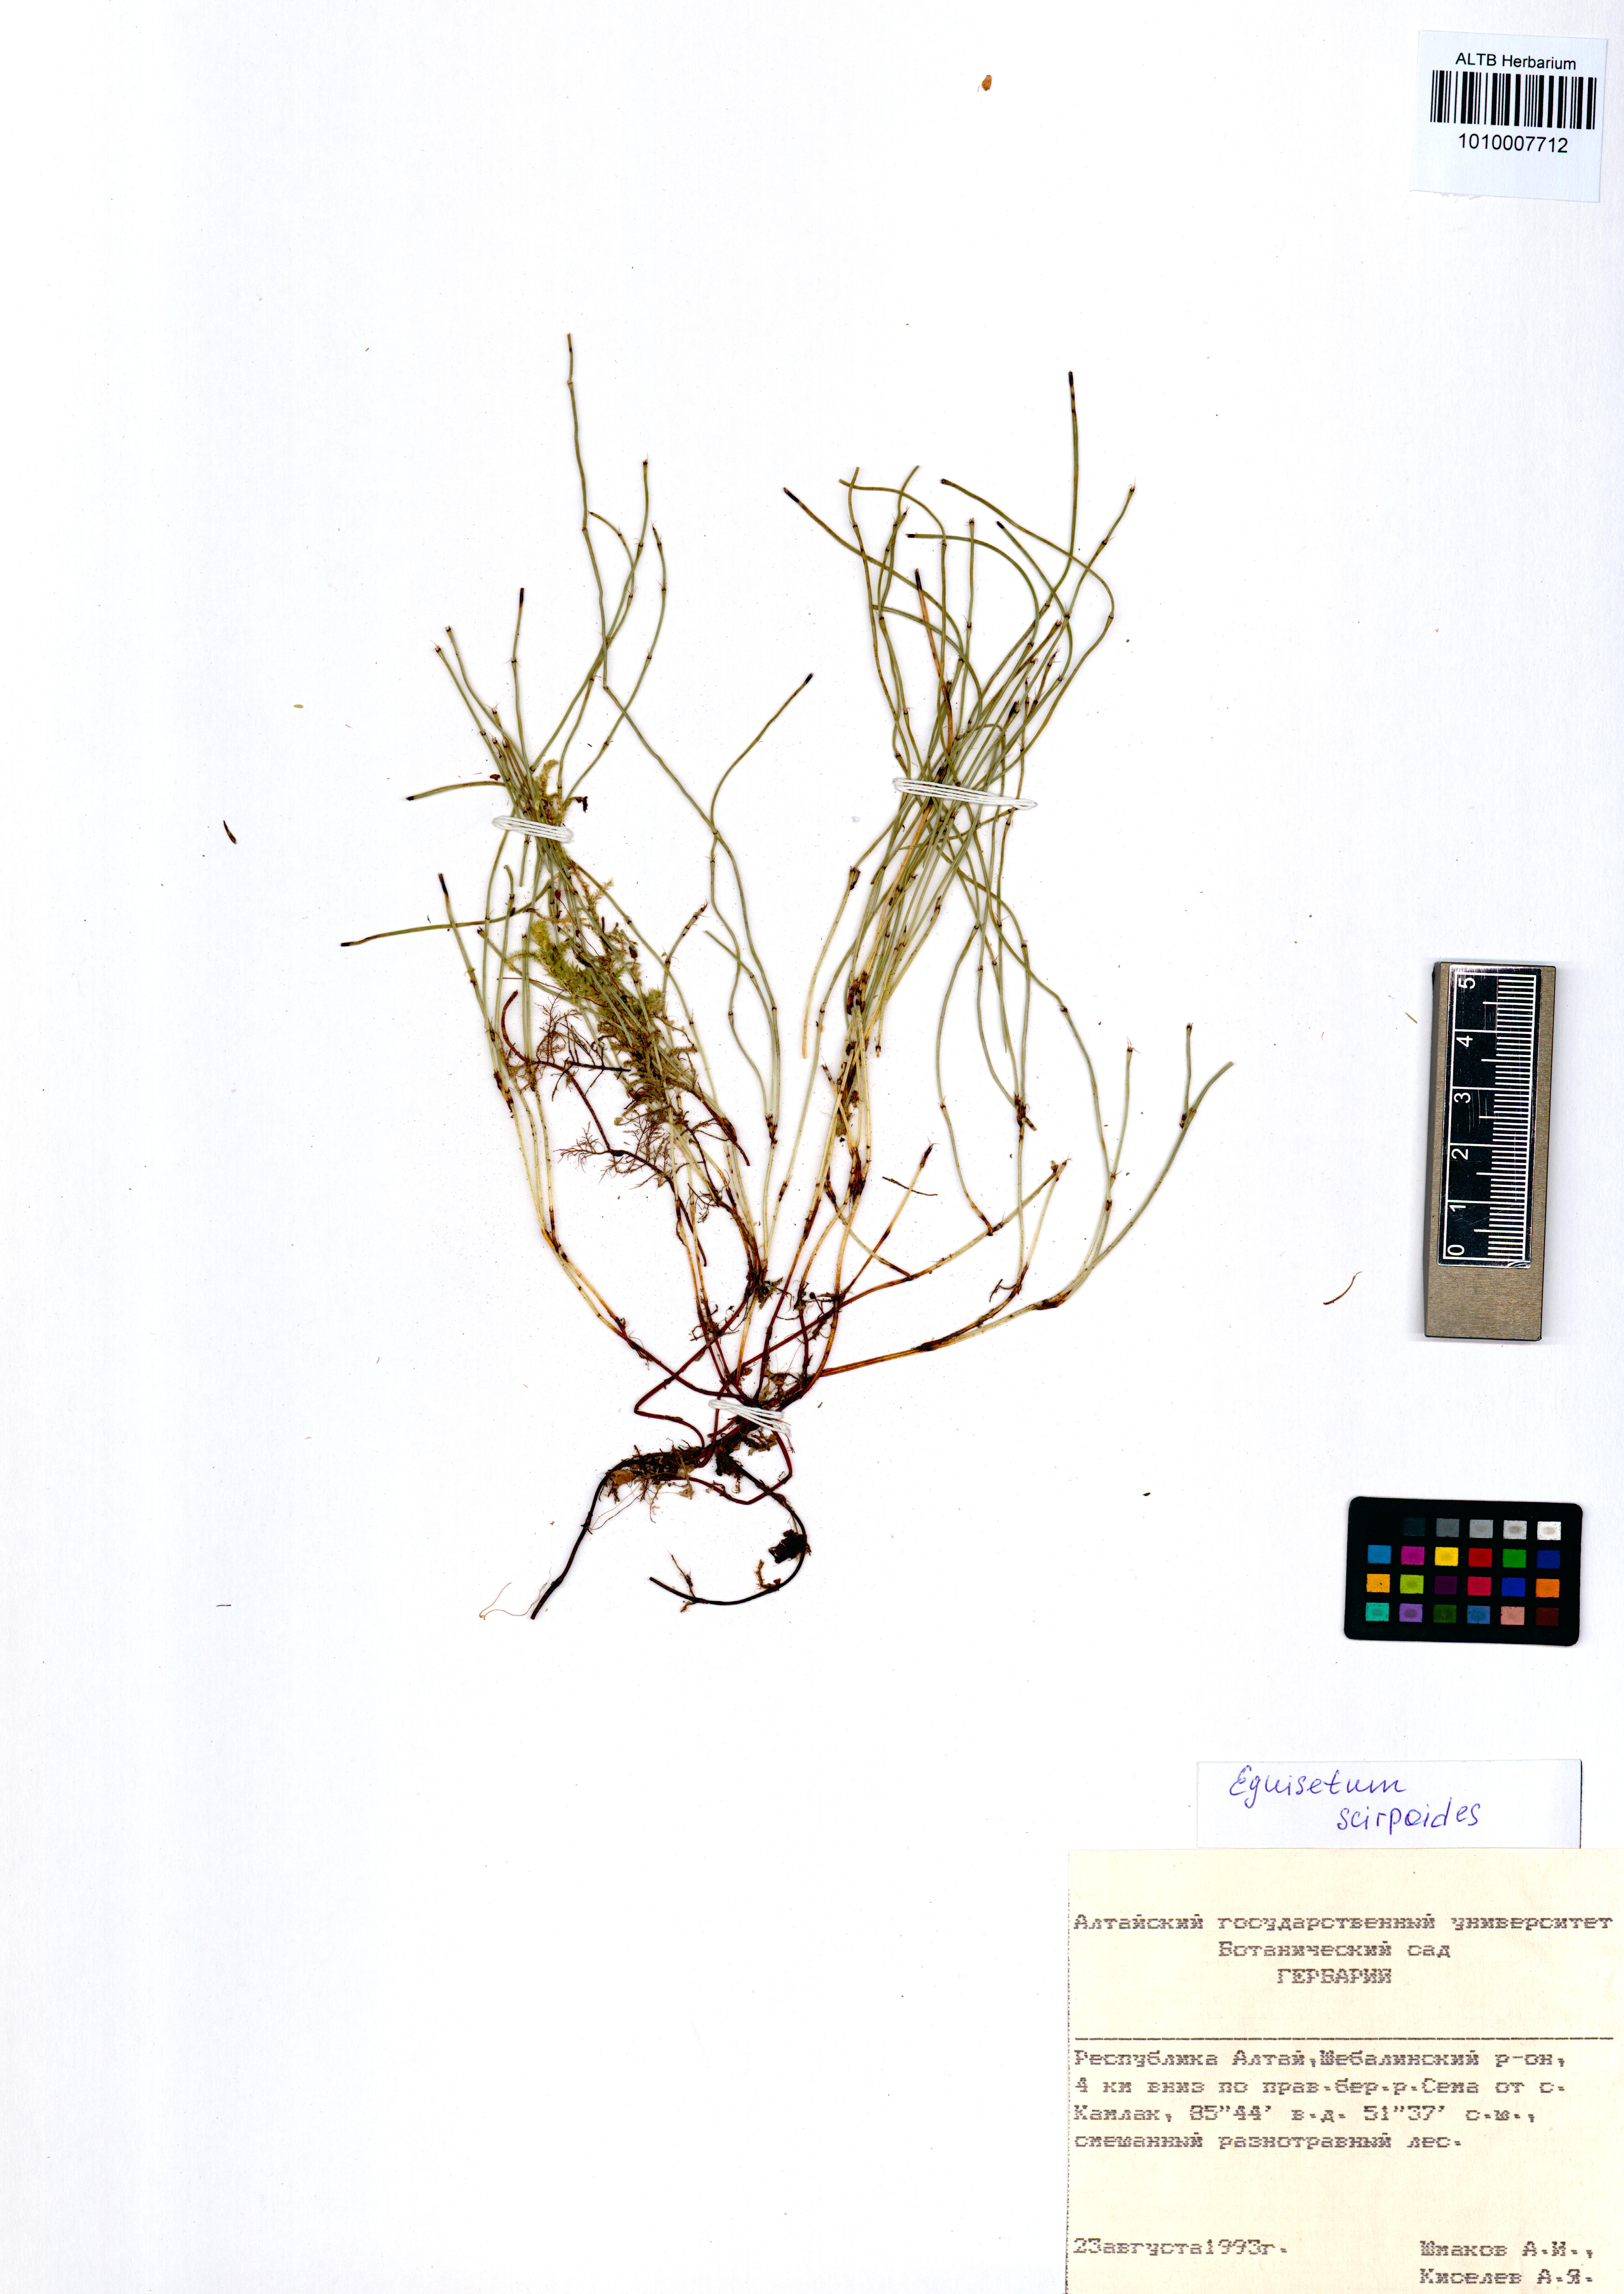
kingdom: Plantae
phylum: Tracheophyta
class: Polypodiopsida
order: Equisetales
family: Equisetaceae
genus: Equisetum
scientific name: Equisetum scirpoides
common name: Delicate horsetail
